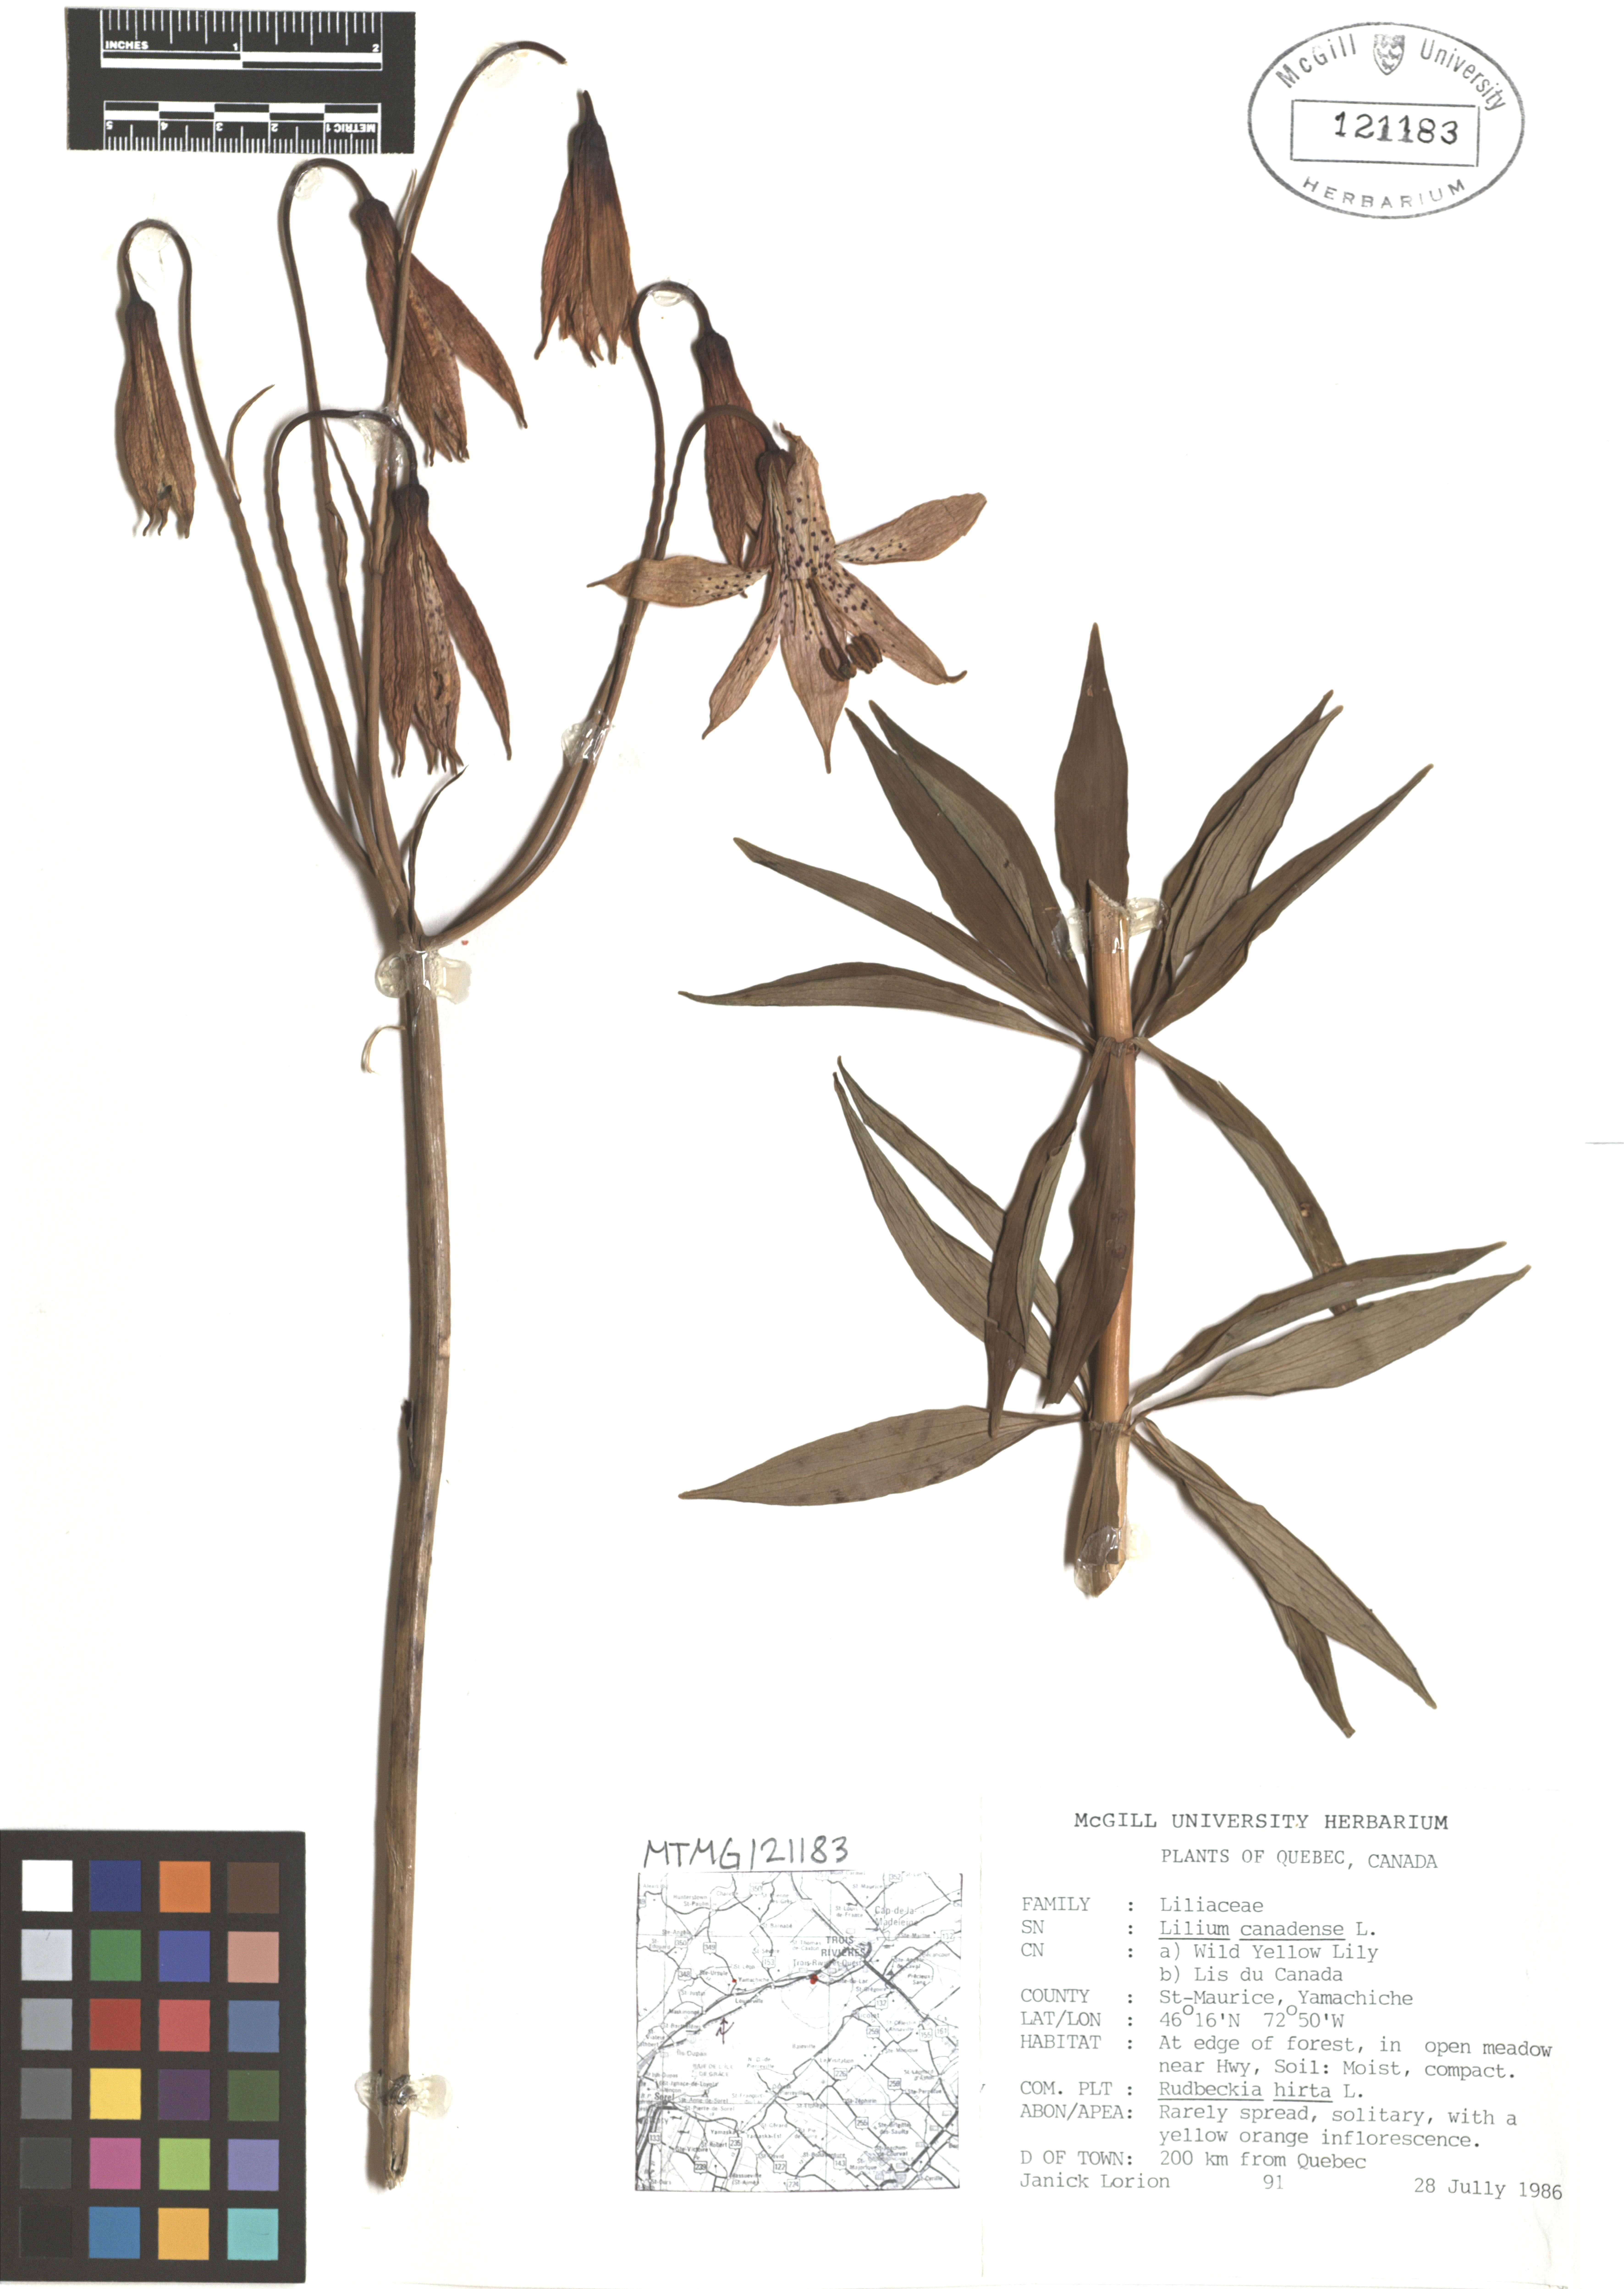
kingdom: Plantae
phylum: Tracheophyta
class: Liliopsida
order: Liliales
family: Liliaceae
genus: Lilium
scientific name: Lilium canadense
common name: Canada lily
